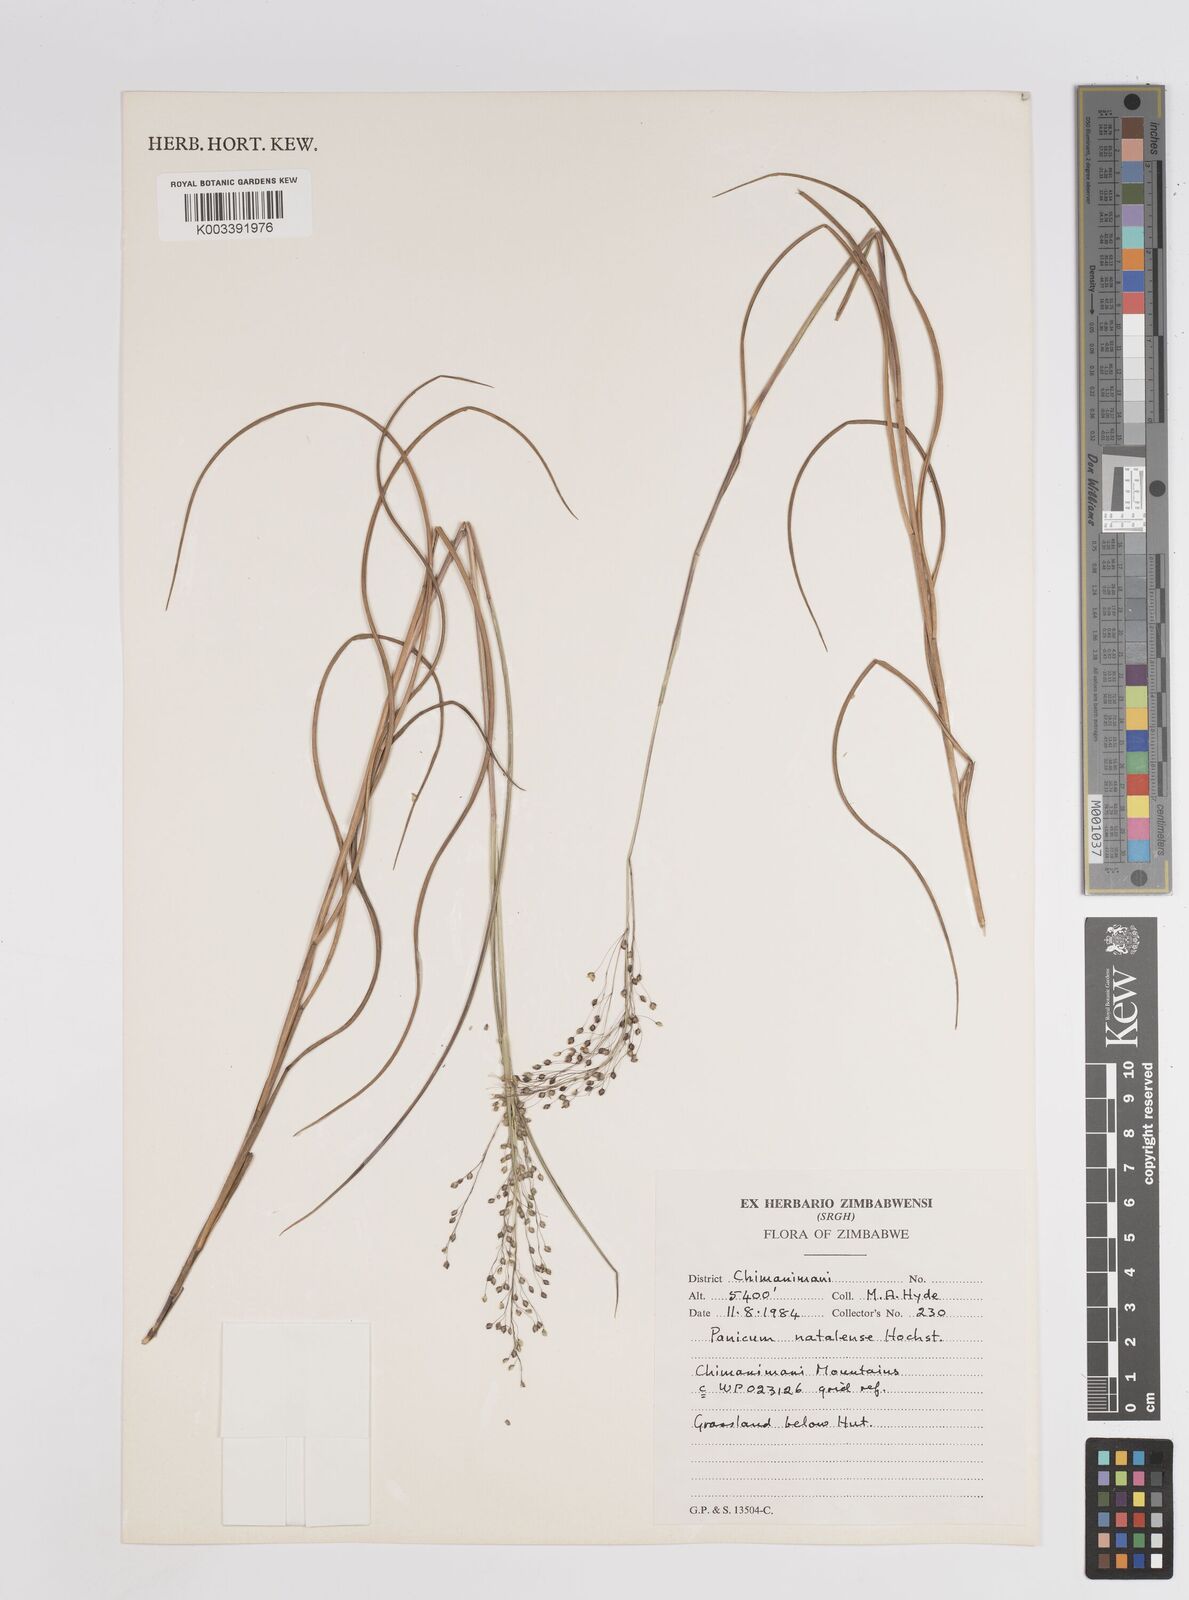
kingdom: Plantae
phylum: Tracheophyta
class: Liliopsida
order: Poales
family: Poaceae
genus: Trichanthecium
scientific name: Trichanthecium natalense
